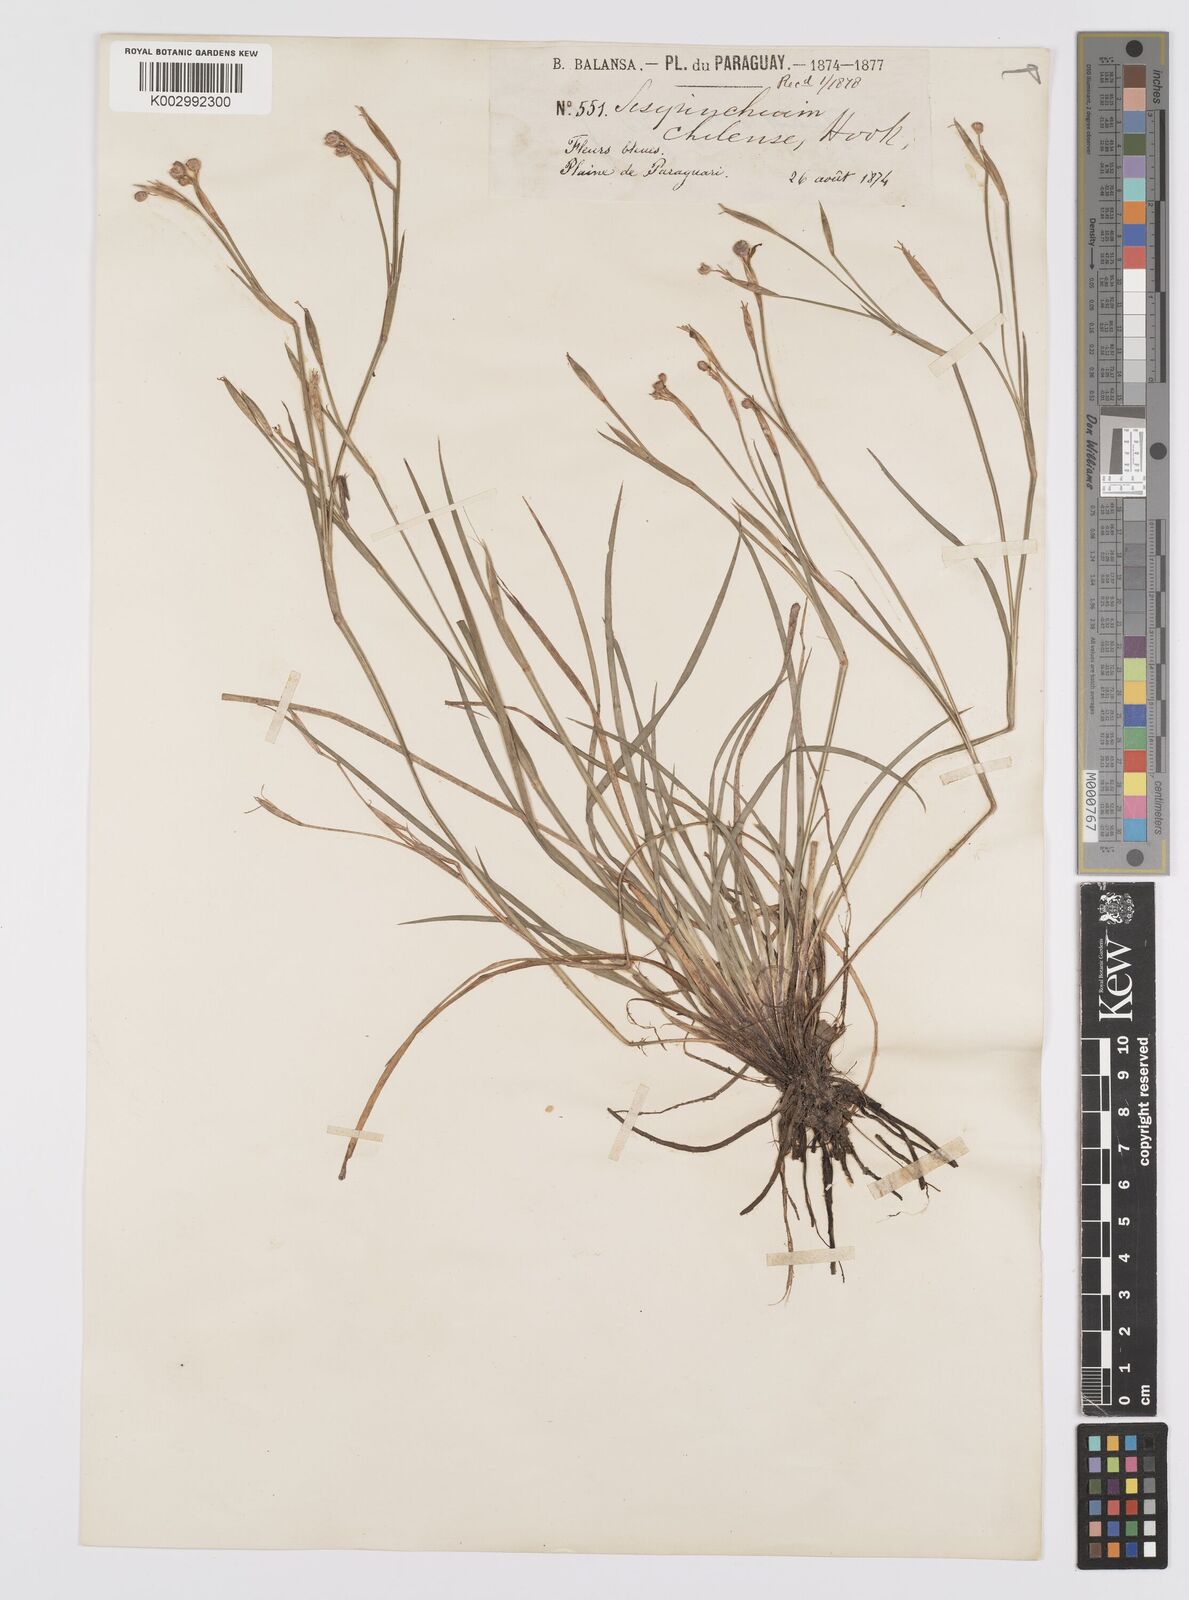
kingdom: Plantae
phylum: Tracheophyta
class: Liliopsida
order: Asparagales
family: Iridaceae
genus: Sisyrinchium
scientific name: Sisyrinchium chilense
